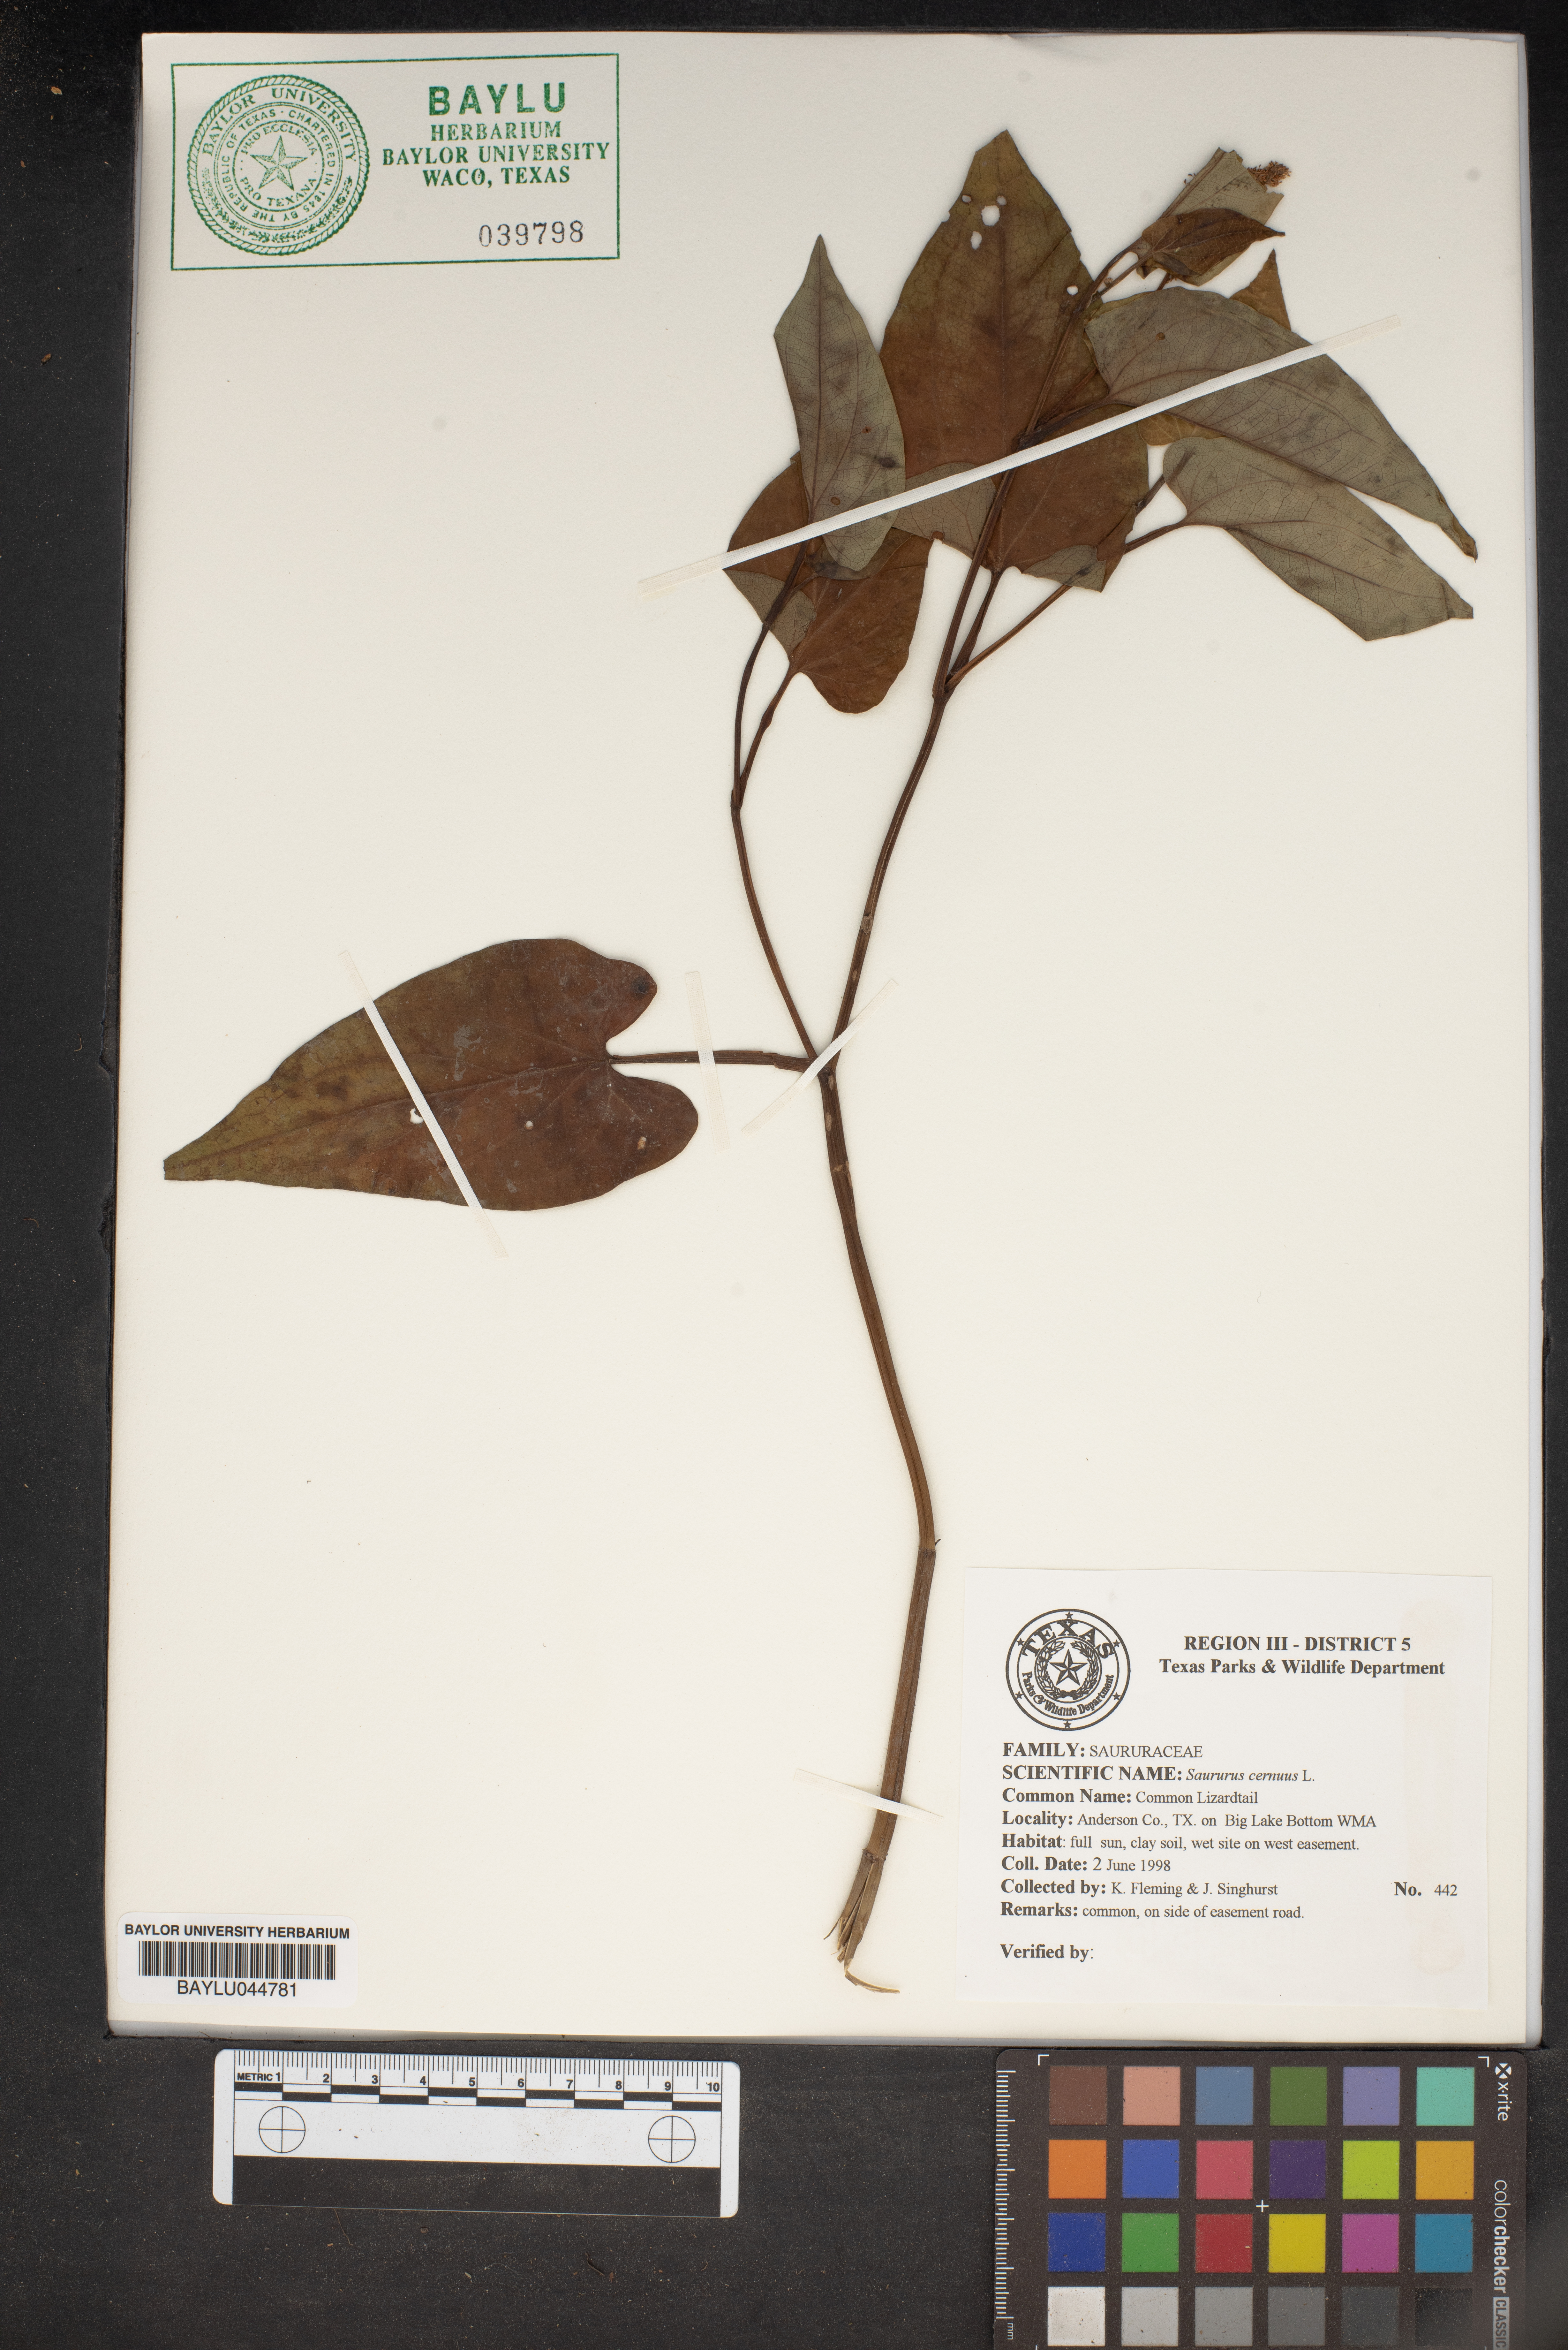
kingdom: Plantae
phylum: Tracheophyta
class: Magnoliopsida
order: Piperales
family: Saururaceae
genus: Saururus
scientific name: Saururus cernuus
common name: Lizard's-tail
